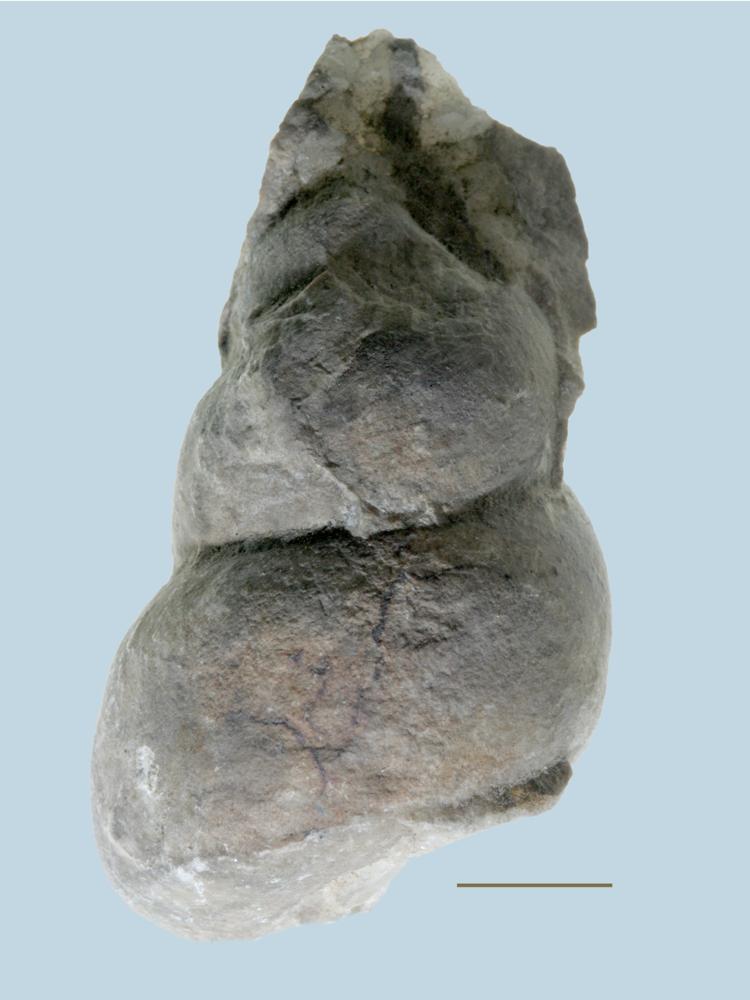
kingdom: Animalia
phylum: Mollusca
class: Gastropoda
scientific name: Gastropoda
